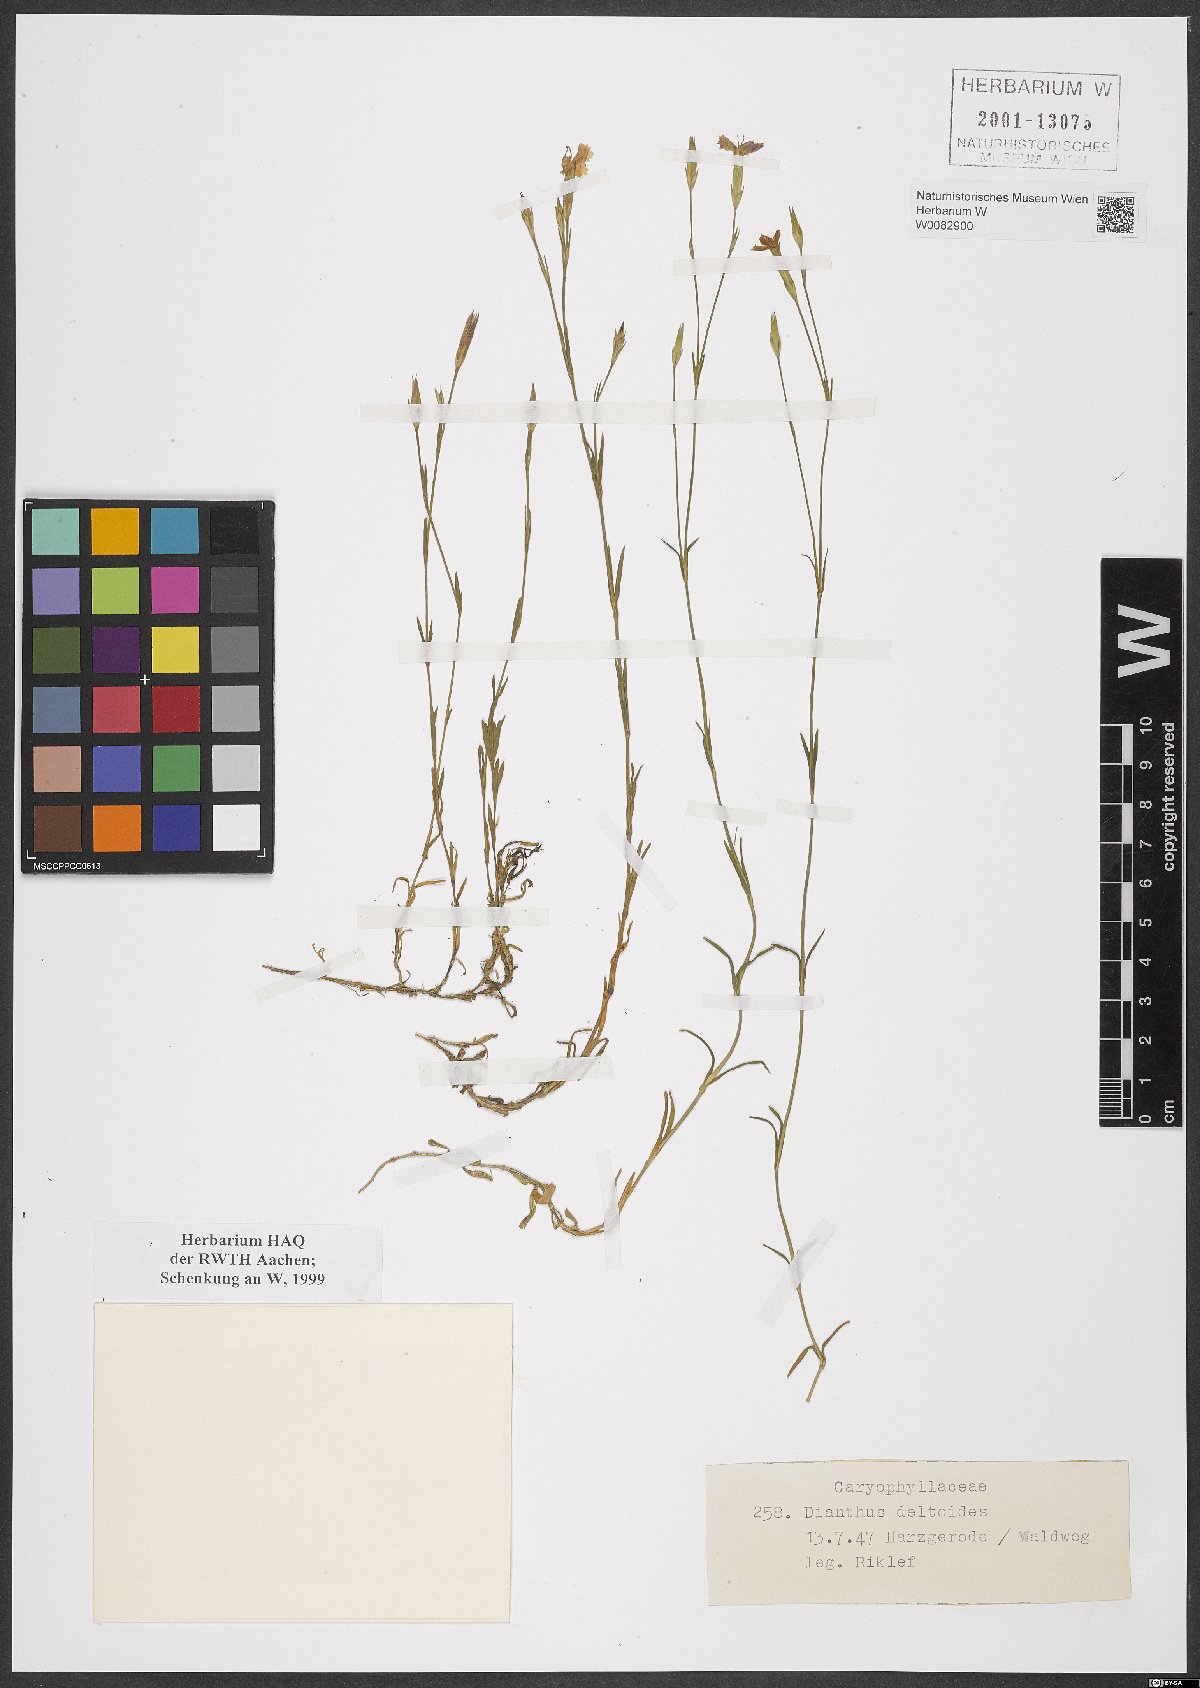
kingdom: Plantae
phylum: Tracheophyta
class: Magnoliopsida
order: Caryophyllales
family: Caryophyllaceae
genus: Dianthus
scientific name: Dianthus deltoides
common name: Maiden pink
